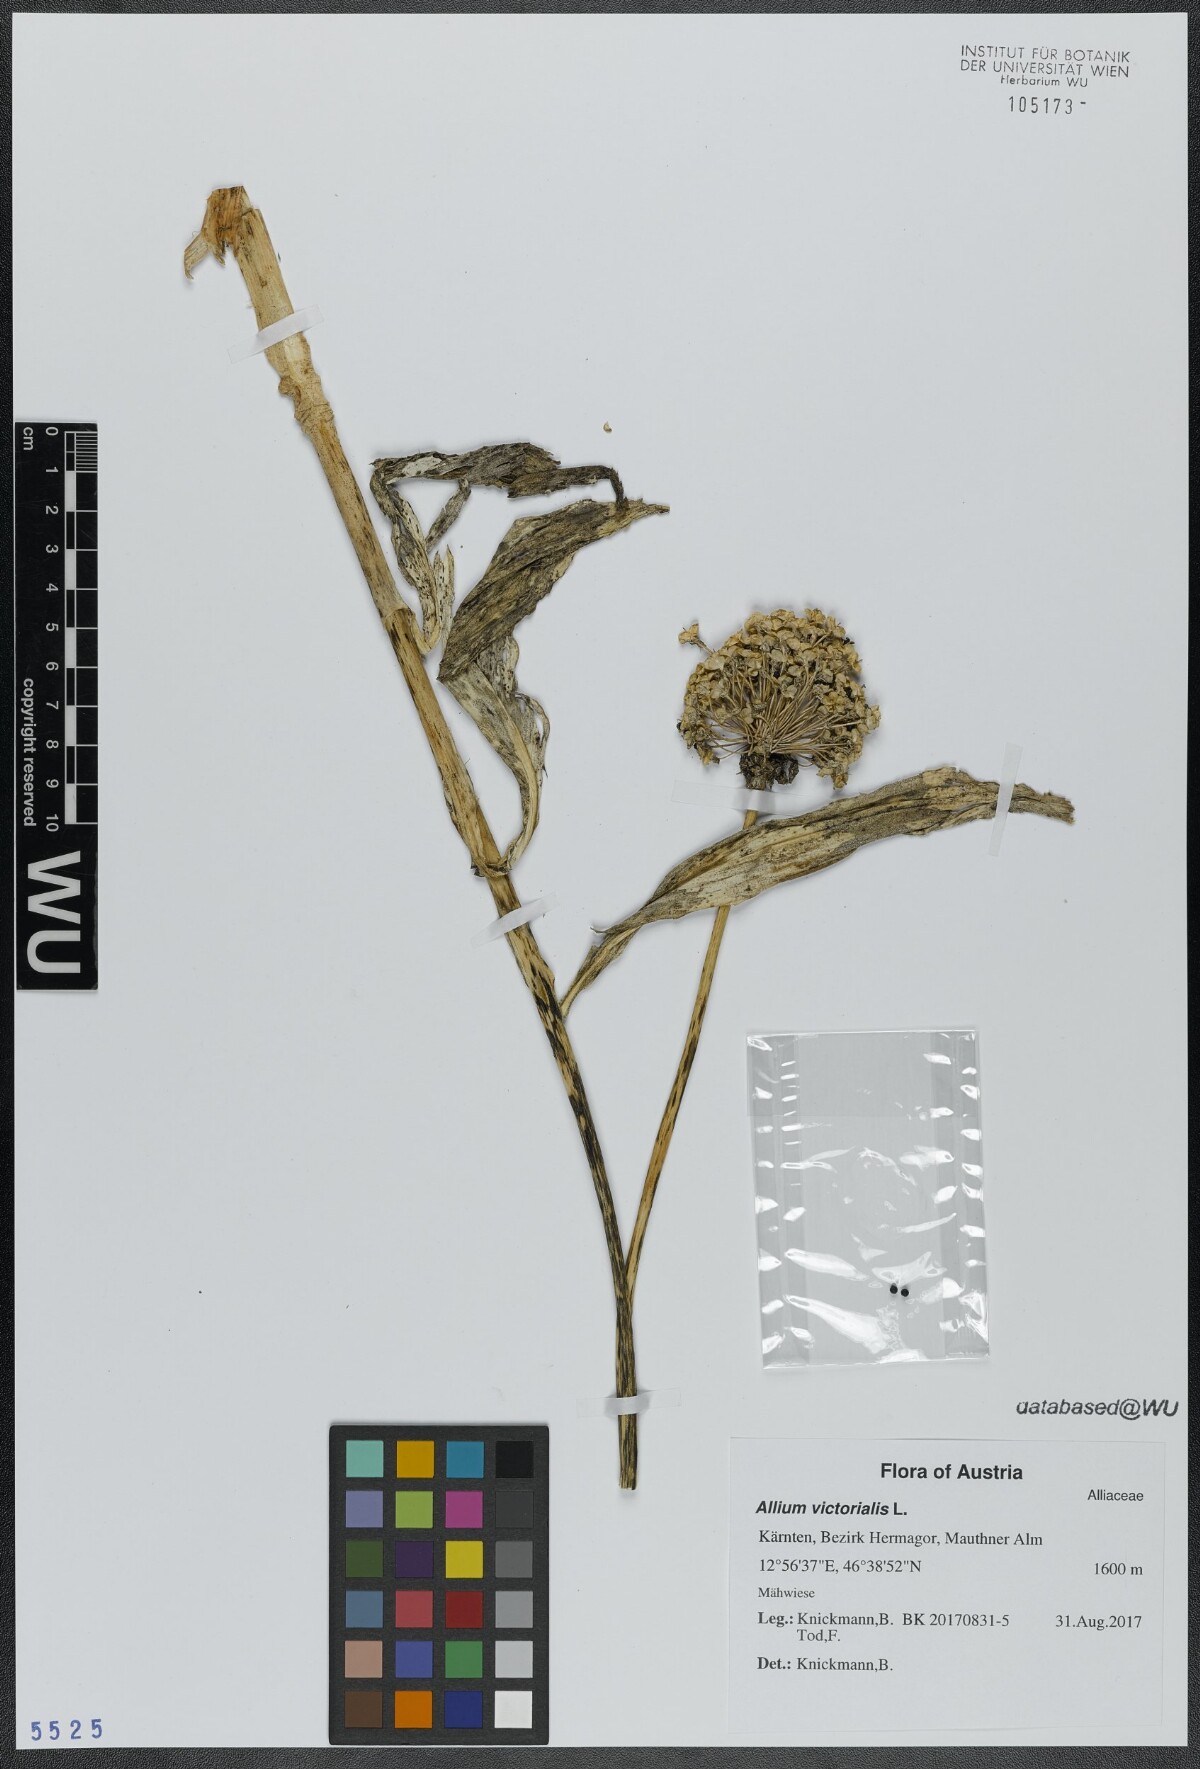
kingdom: Plantae
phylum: Tracheophyta
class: Liliopsida
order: Asparagales
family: Amaryllidaceae
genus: Allium
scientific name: Allium victorialis
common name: Alpine leek
